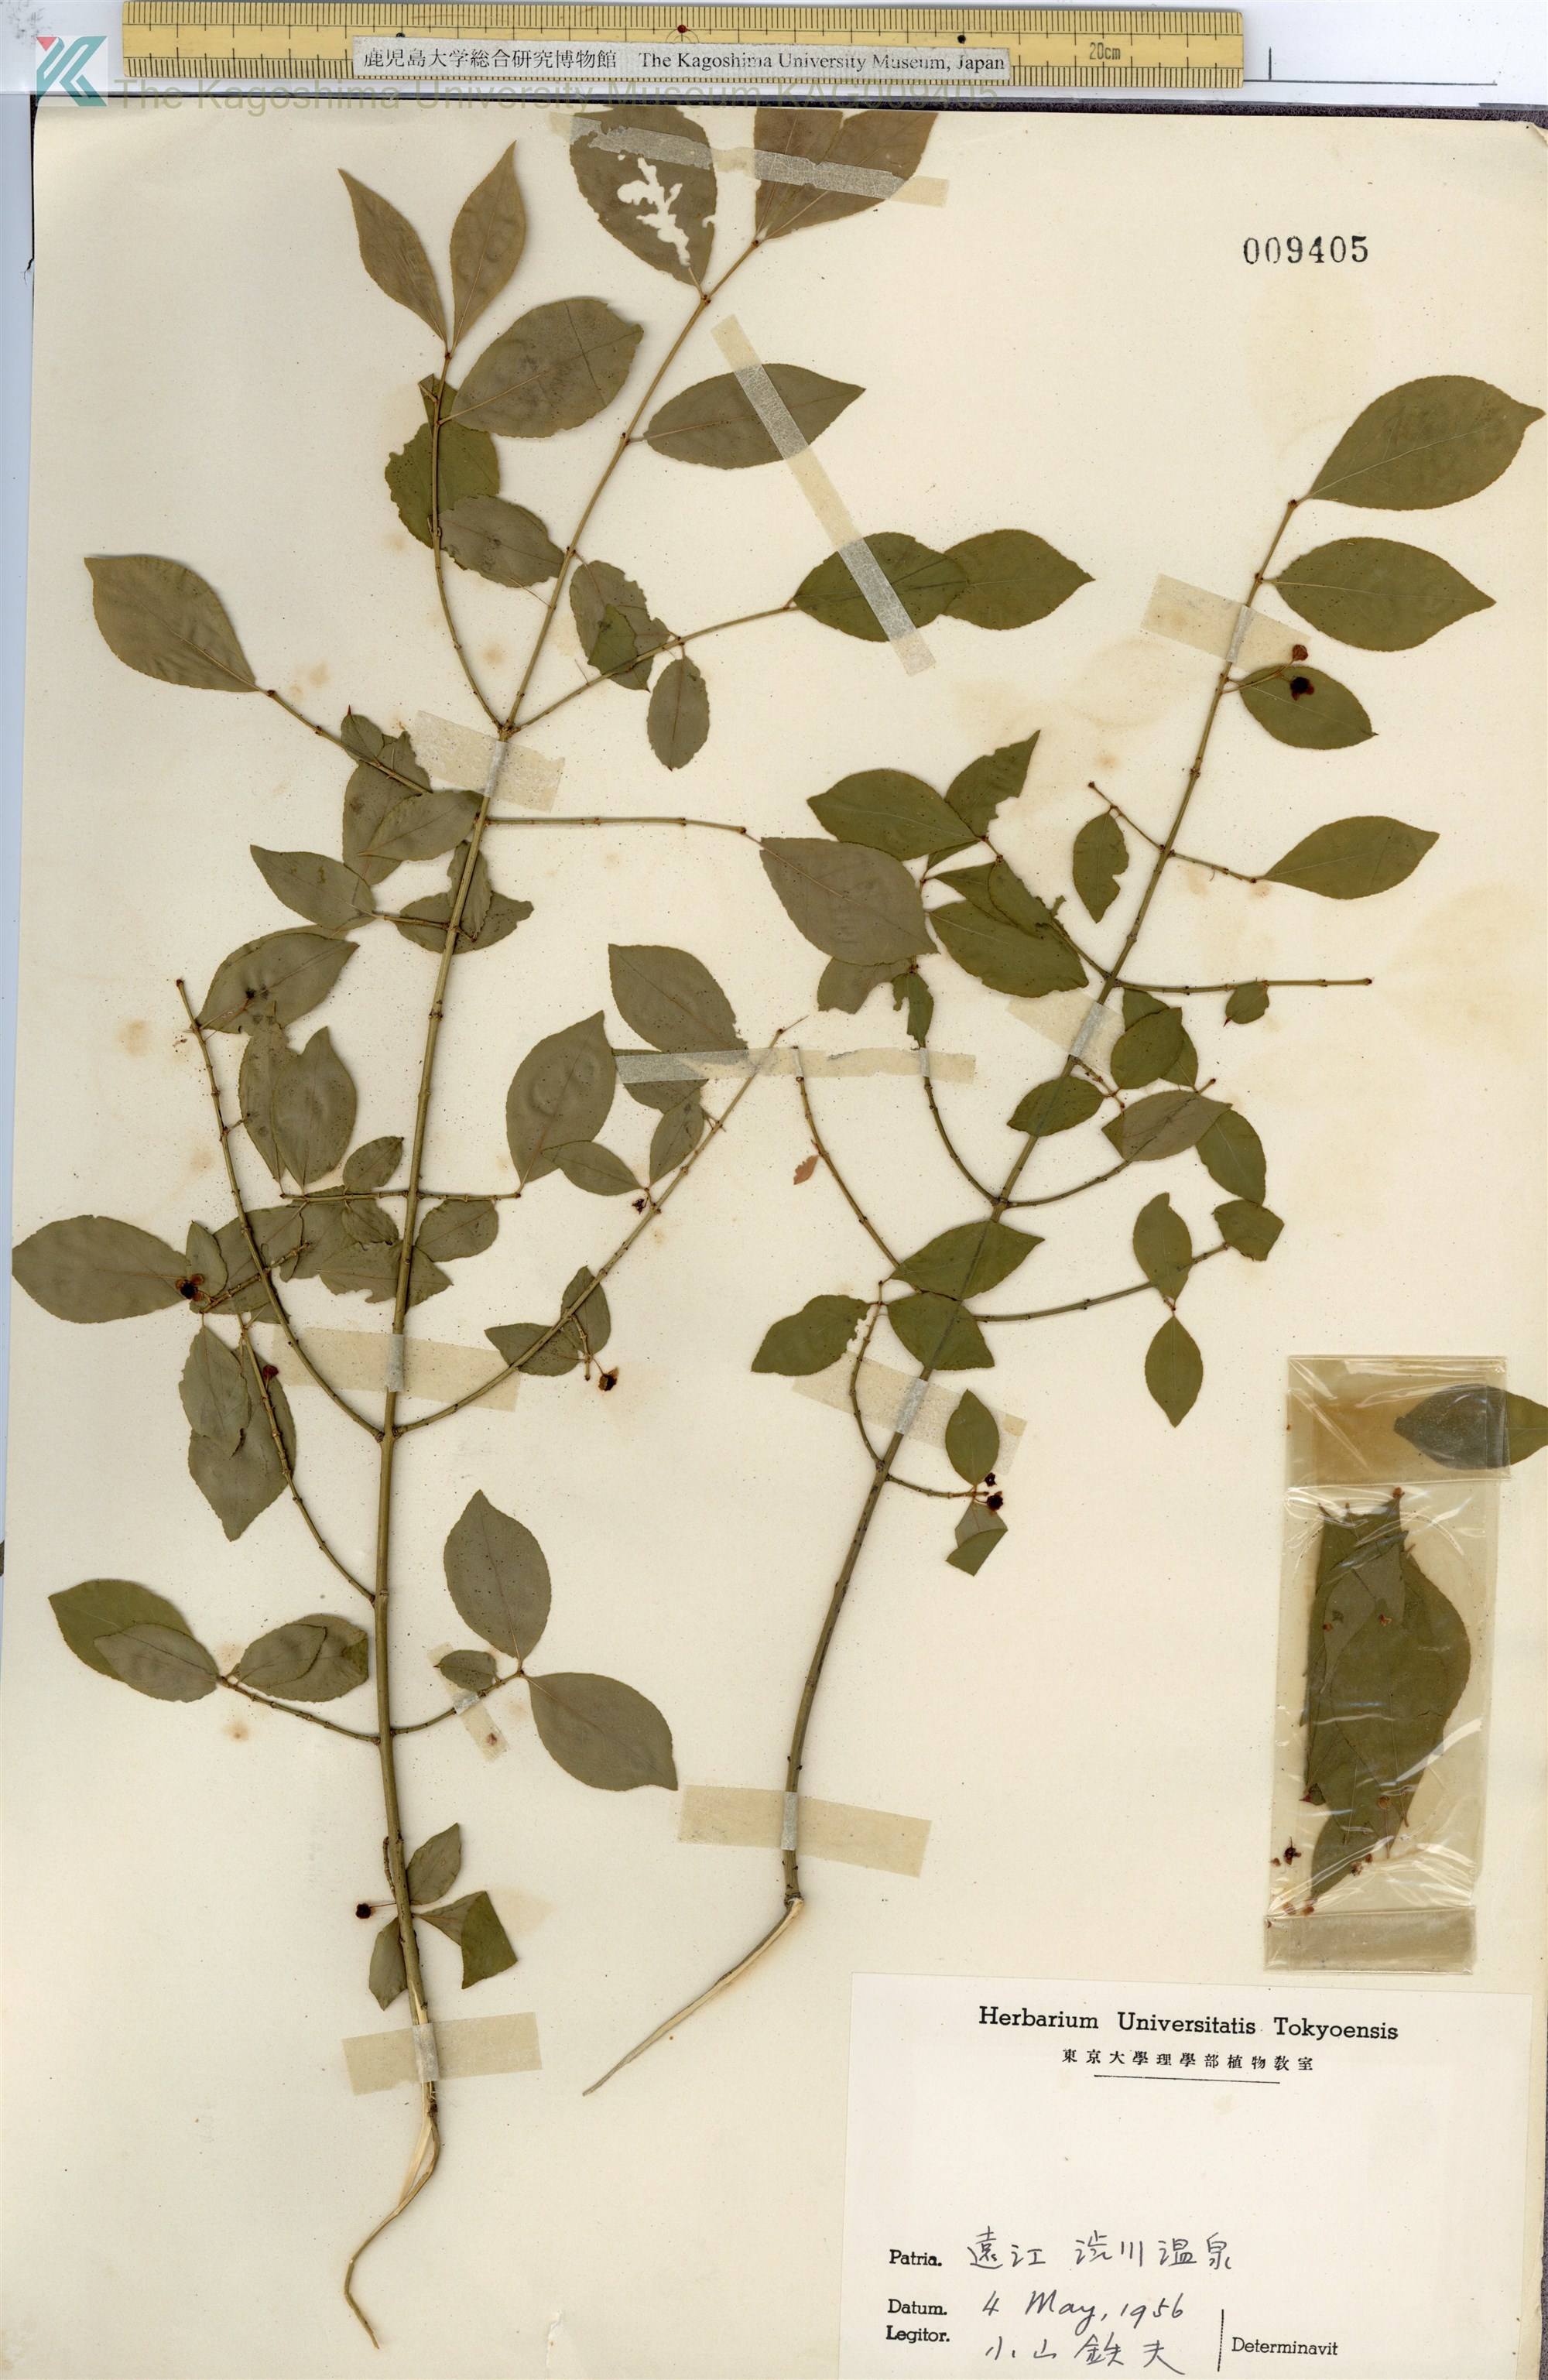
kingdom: Plantae
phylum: Tracheophyta
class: Magnoliopsida
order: Celastrales
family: Celastraceae
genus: Euonymus
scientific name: Euonymus alatus
